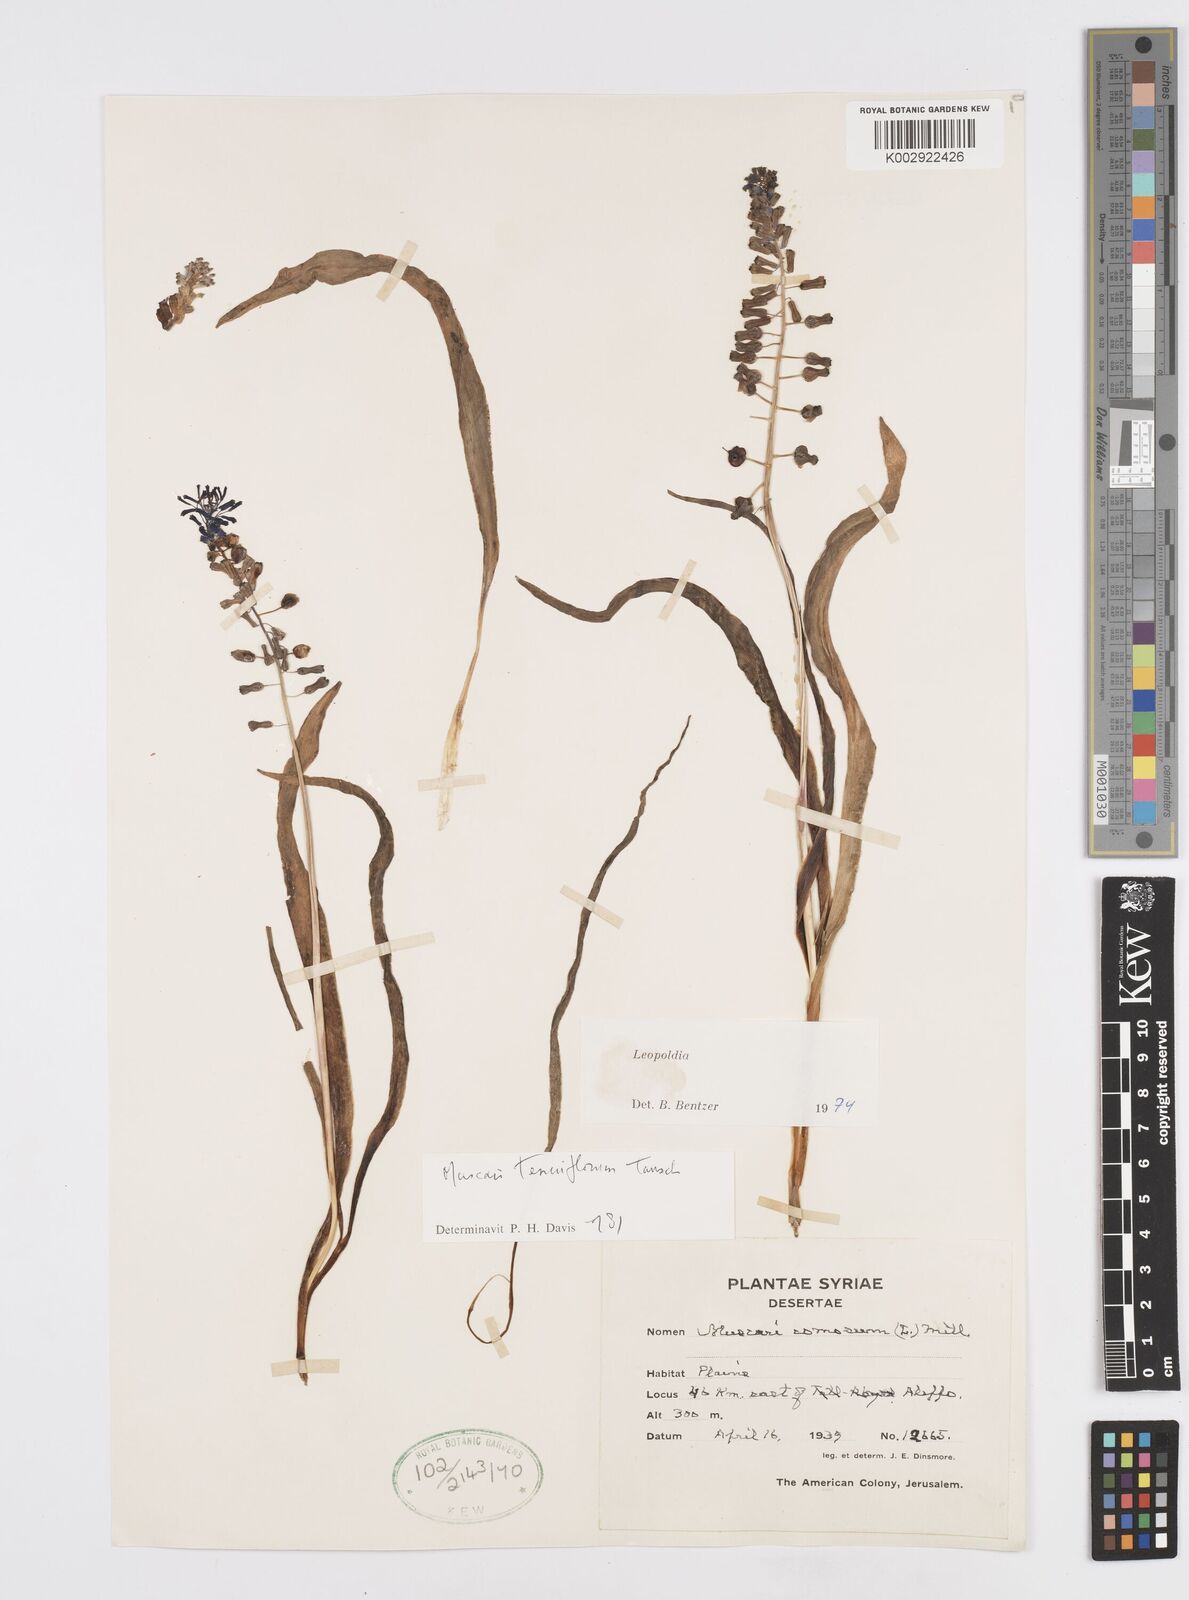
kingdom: Plantae
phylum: Tracheophyta
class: Liliopsida
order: Asparagales
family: Asparagaceae
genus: Muscari
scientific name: Muscari tenuiflorum
